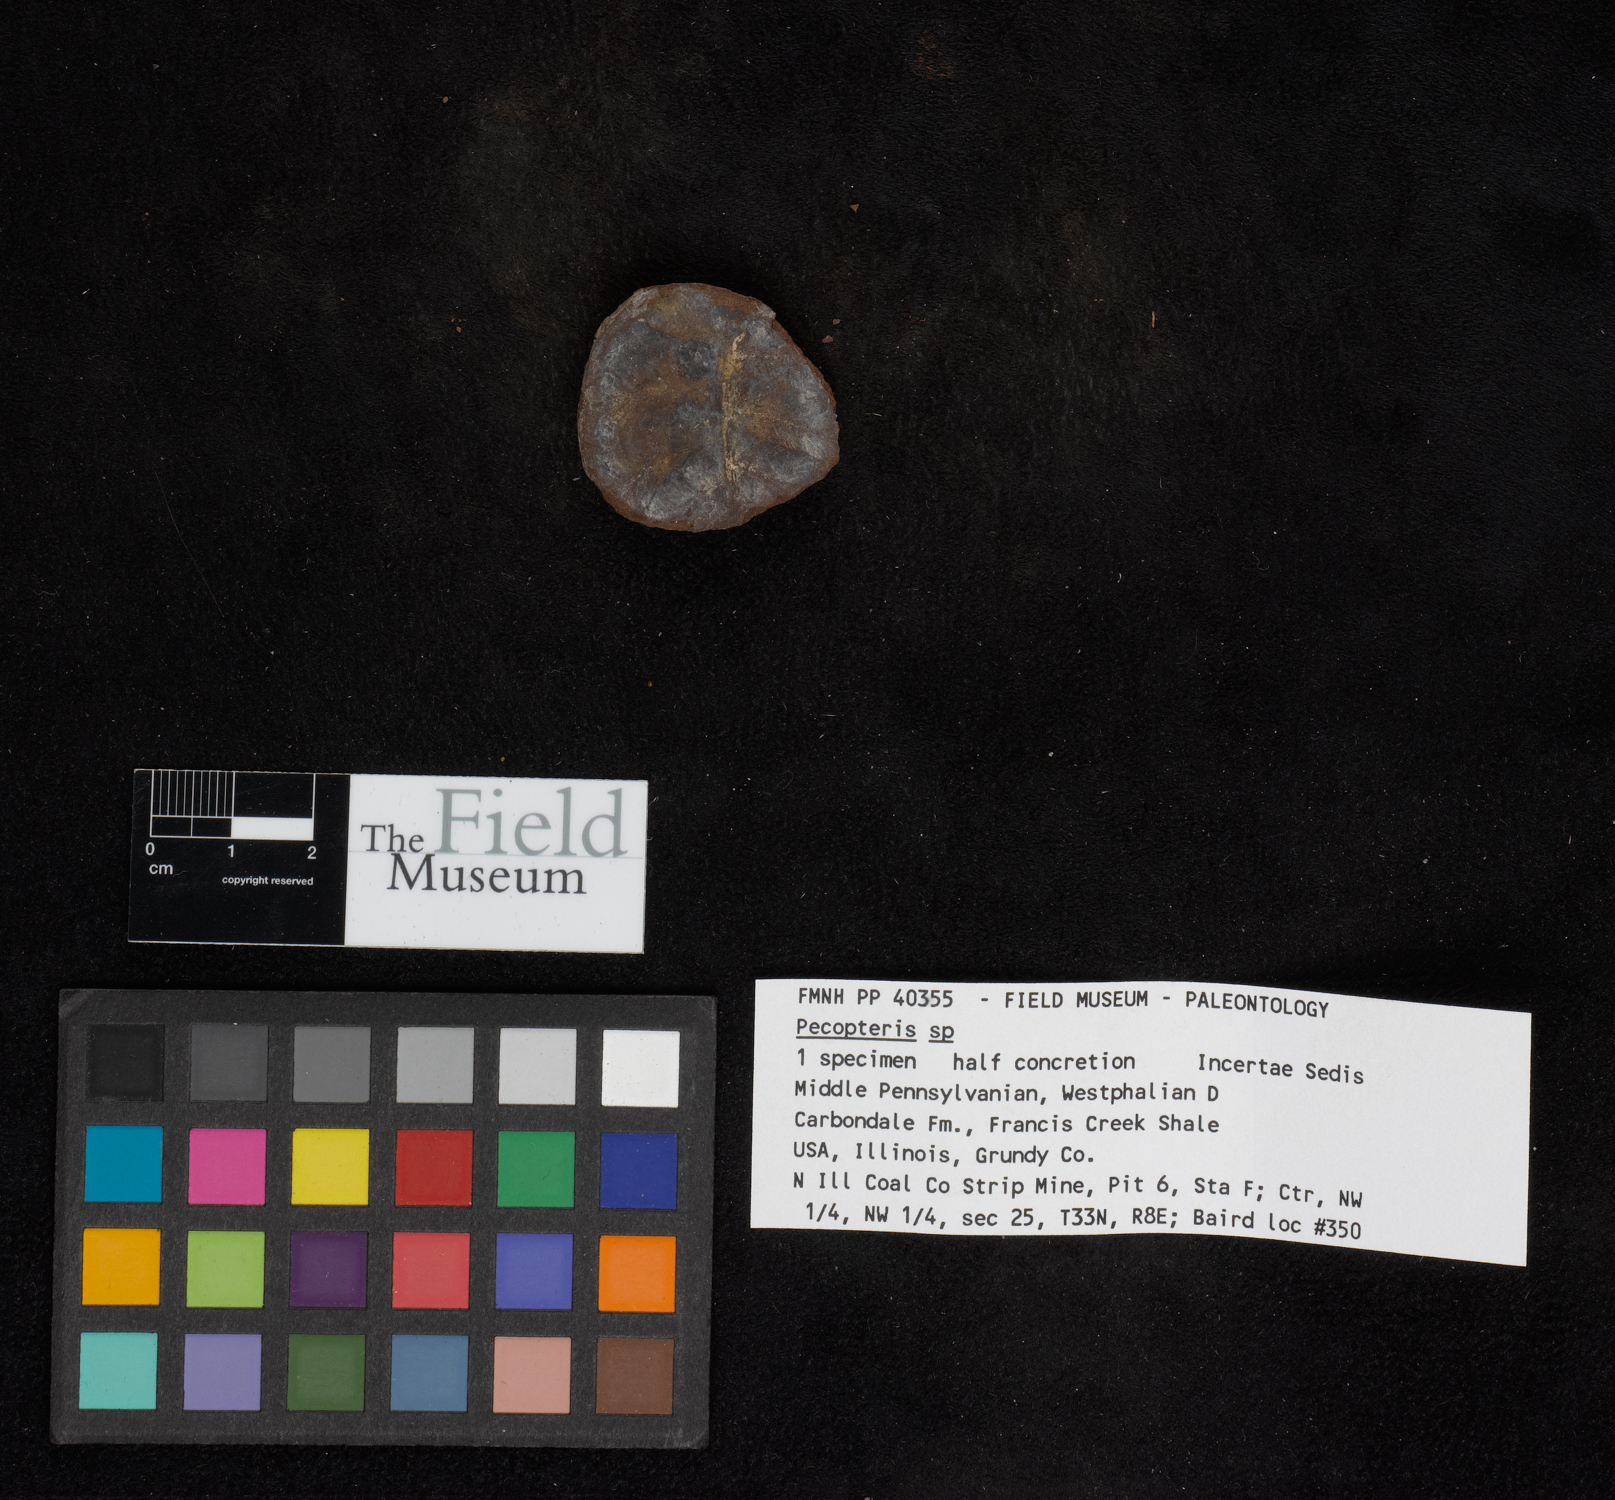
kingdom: Plantae
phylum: Tracheophyta
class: Polypodiopsida
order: Marattiales
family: Asterothecaceae
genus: Pecopteris
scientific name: Pecopteris
